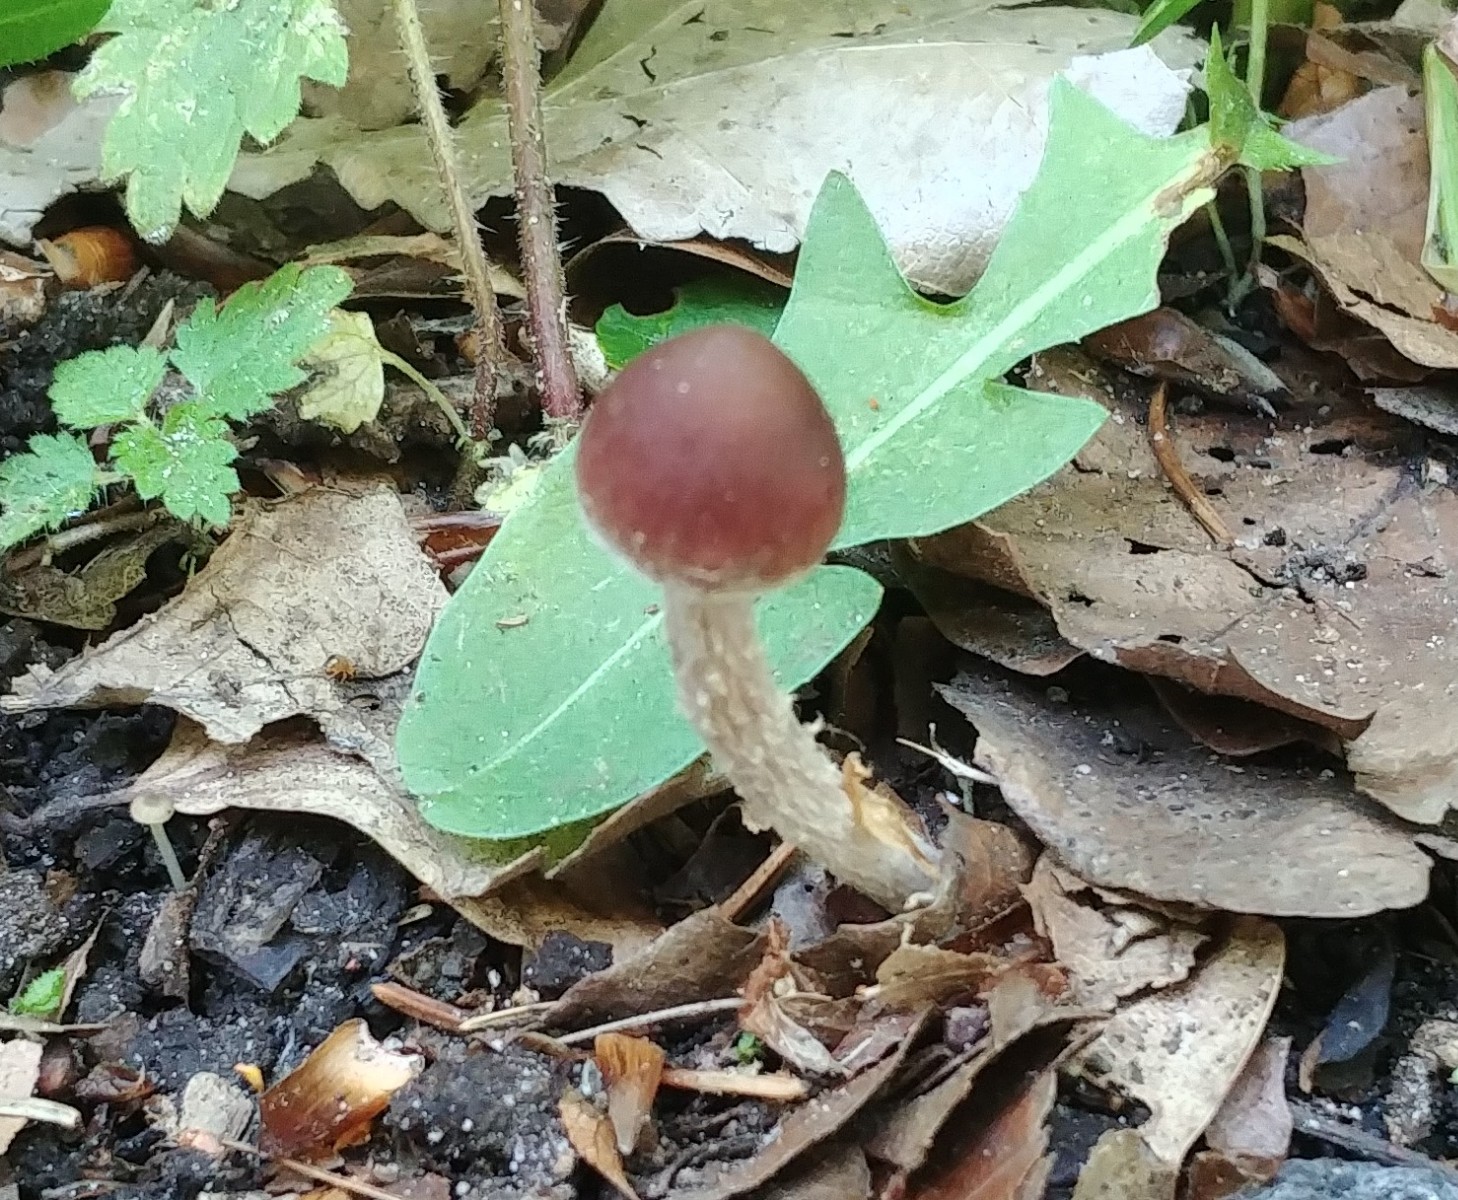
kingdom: Fungi
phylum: Basidiomycota
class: Agaricomycetes
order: Agaricales
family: Psathyrellaceae
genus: Psathyrella
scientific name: Psathyrella bipellis
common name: vinrød mørkhat
